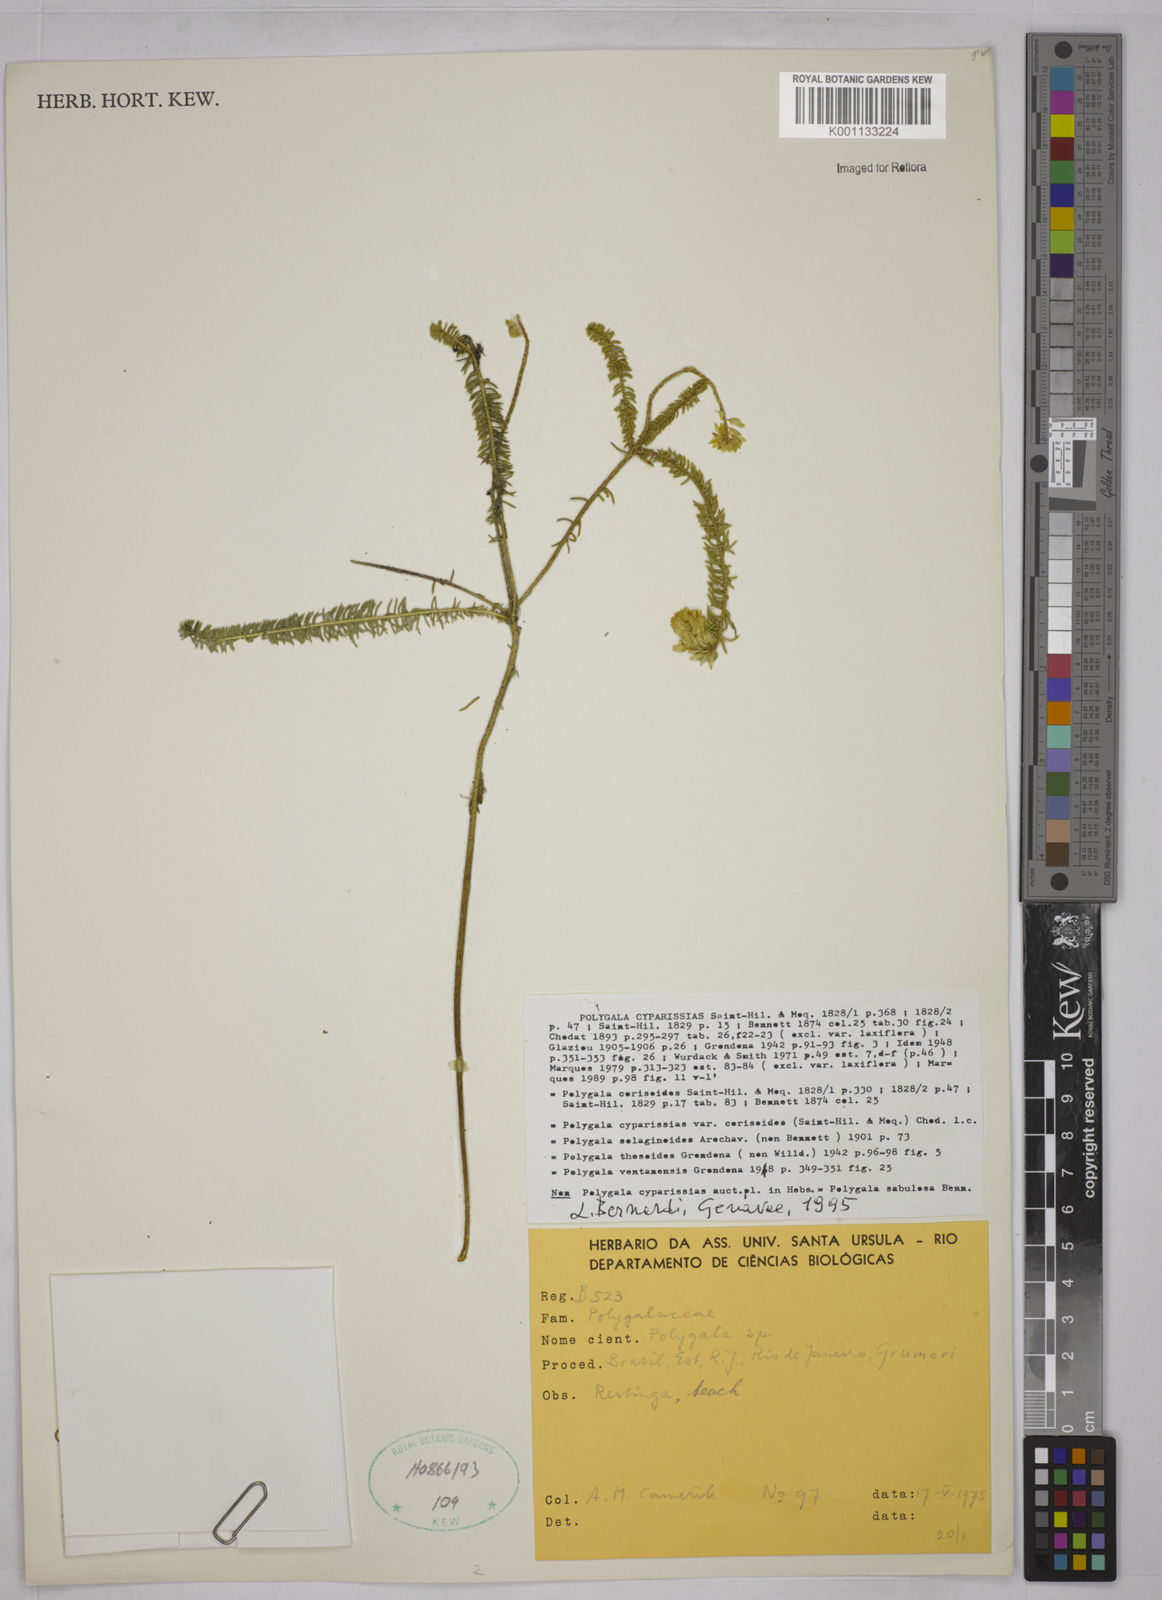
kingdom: Plantae
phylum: Tracheophyta
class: Magnoliopsida
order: Fabales
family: Polygalaceae
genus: Polygala
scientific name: Polygala cyparissias
